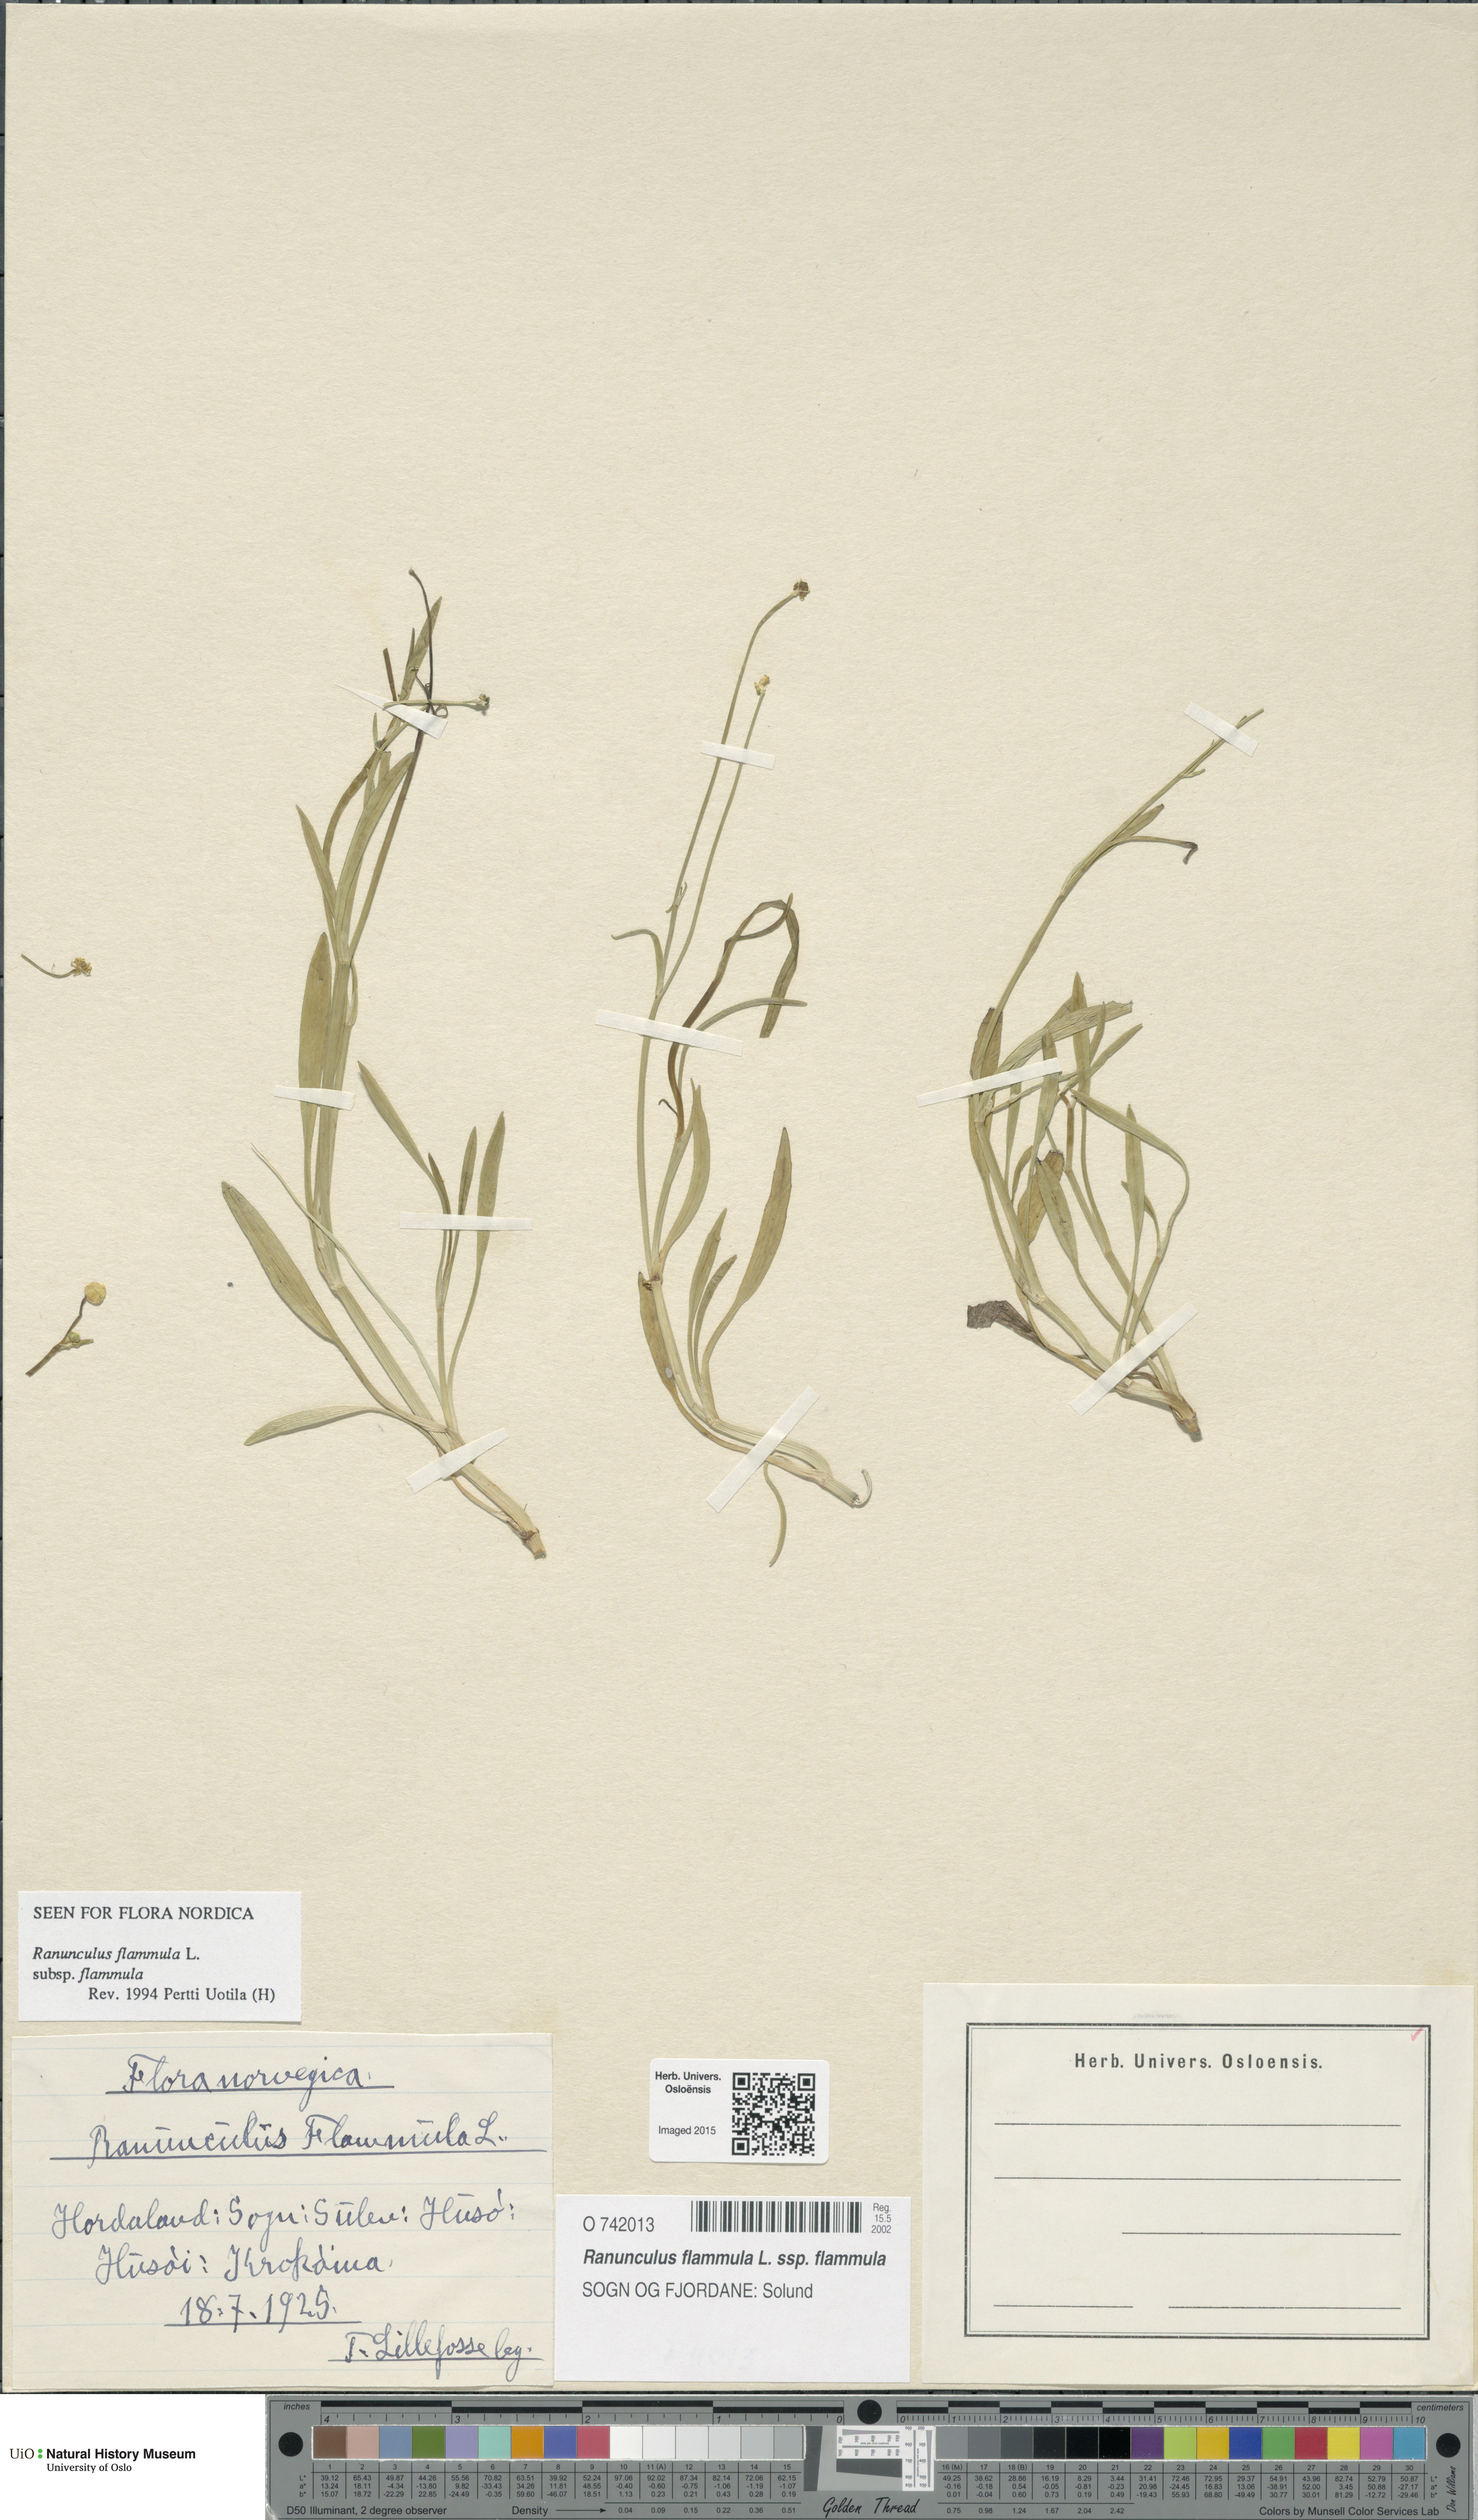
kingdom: Plantae
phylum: Tracheophyta
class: Magnoliopsida
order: Ranunculales
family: Ranunculaceae
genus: Ranunculus
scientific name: Ranunculus flammula
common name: Lesser spearwort
